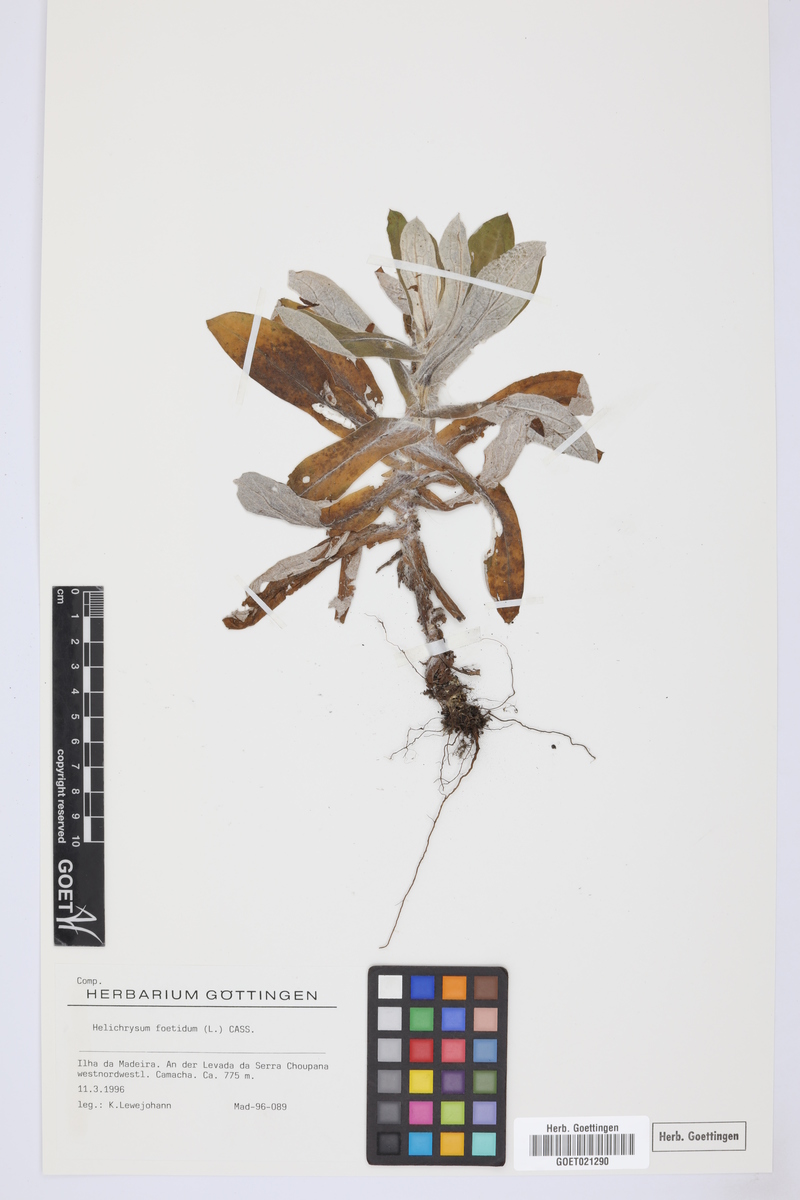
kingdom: Plantae
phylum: Tracheophyta
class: Magnoliopsida
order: Asterales
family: Asteraceae
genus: Helichrysum
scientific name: Helichrysum foetidum
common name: Stinking everlasting
